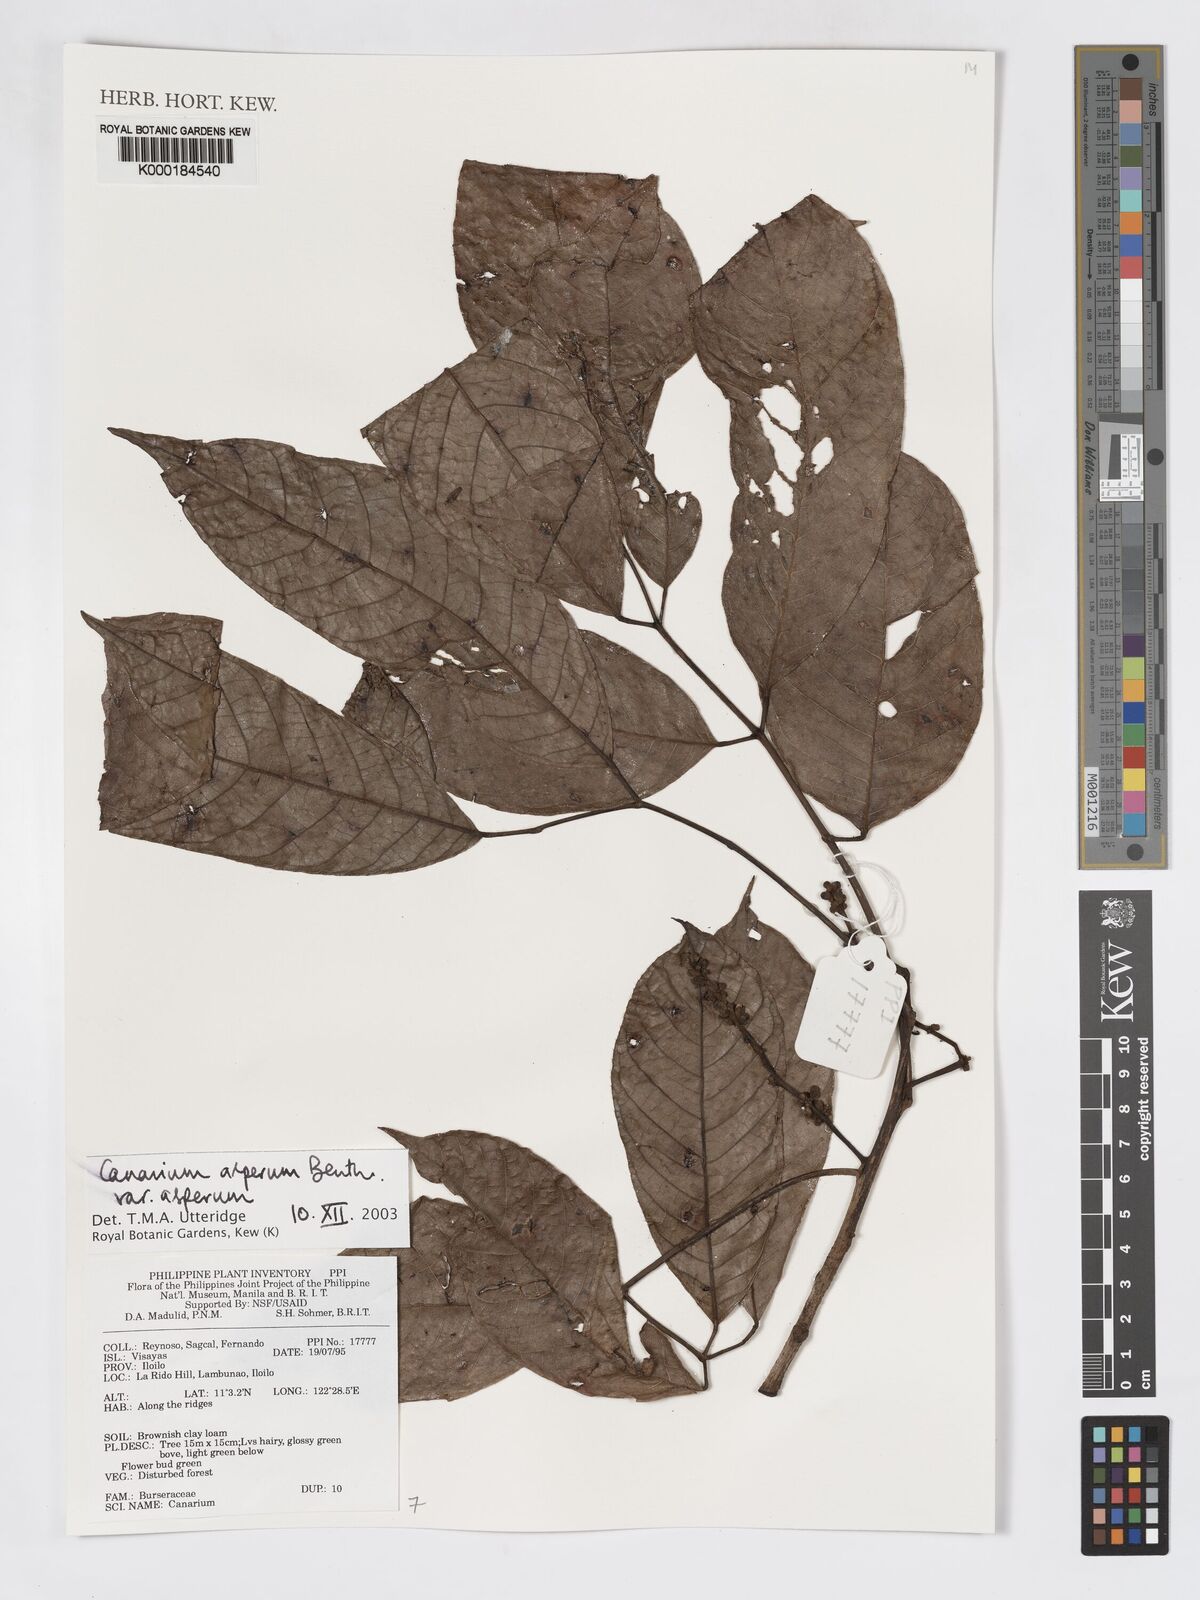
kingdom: Plantae
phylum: Tracheophyta
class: Magnoliopsida
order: Sapindales
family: Burseraceae
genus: Canarium
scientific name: Canarium asperum
